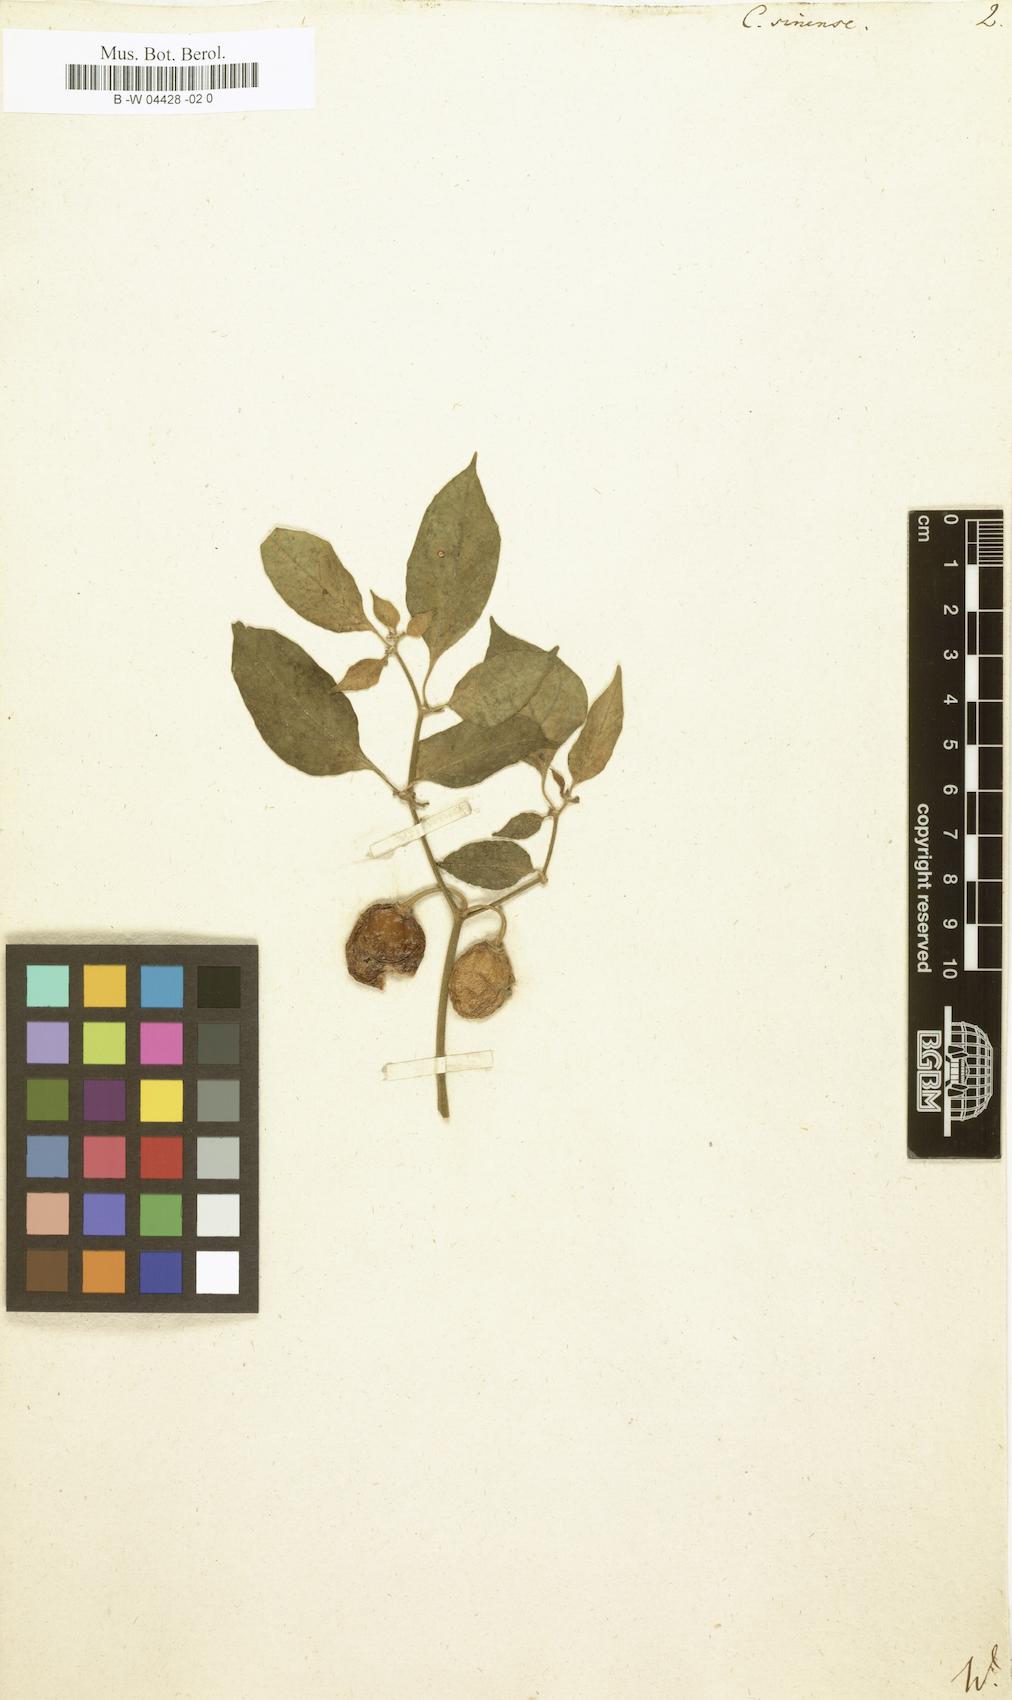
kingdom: Plantae
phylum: Tracheophyta
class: Magnoliopsida
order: Solanales
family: Solanaceae
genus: Capsicum
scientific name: Capsicum chinense
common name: Yellow squash pepper
